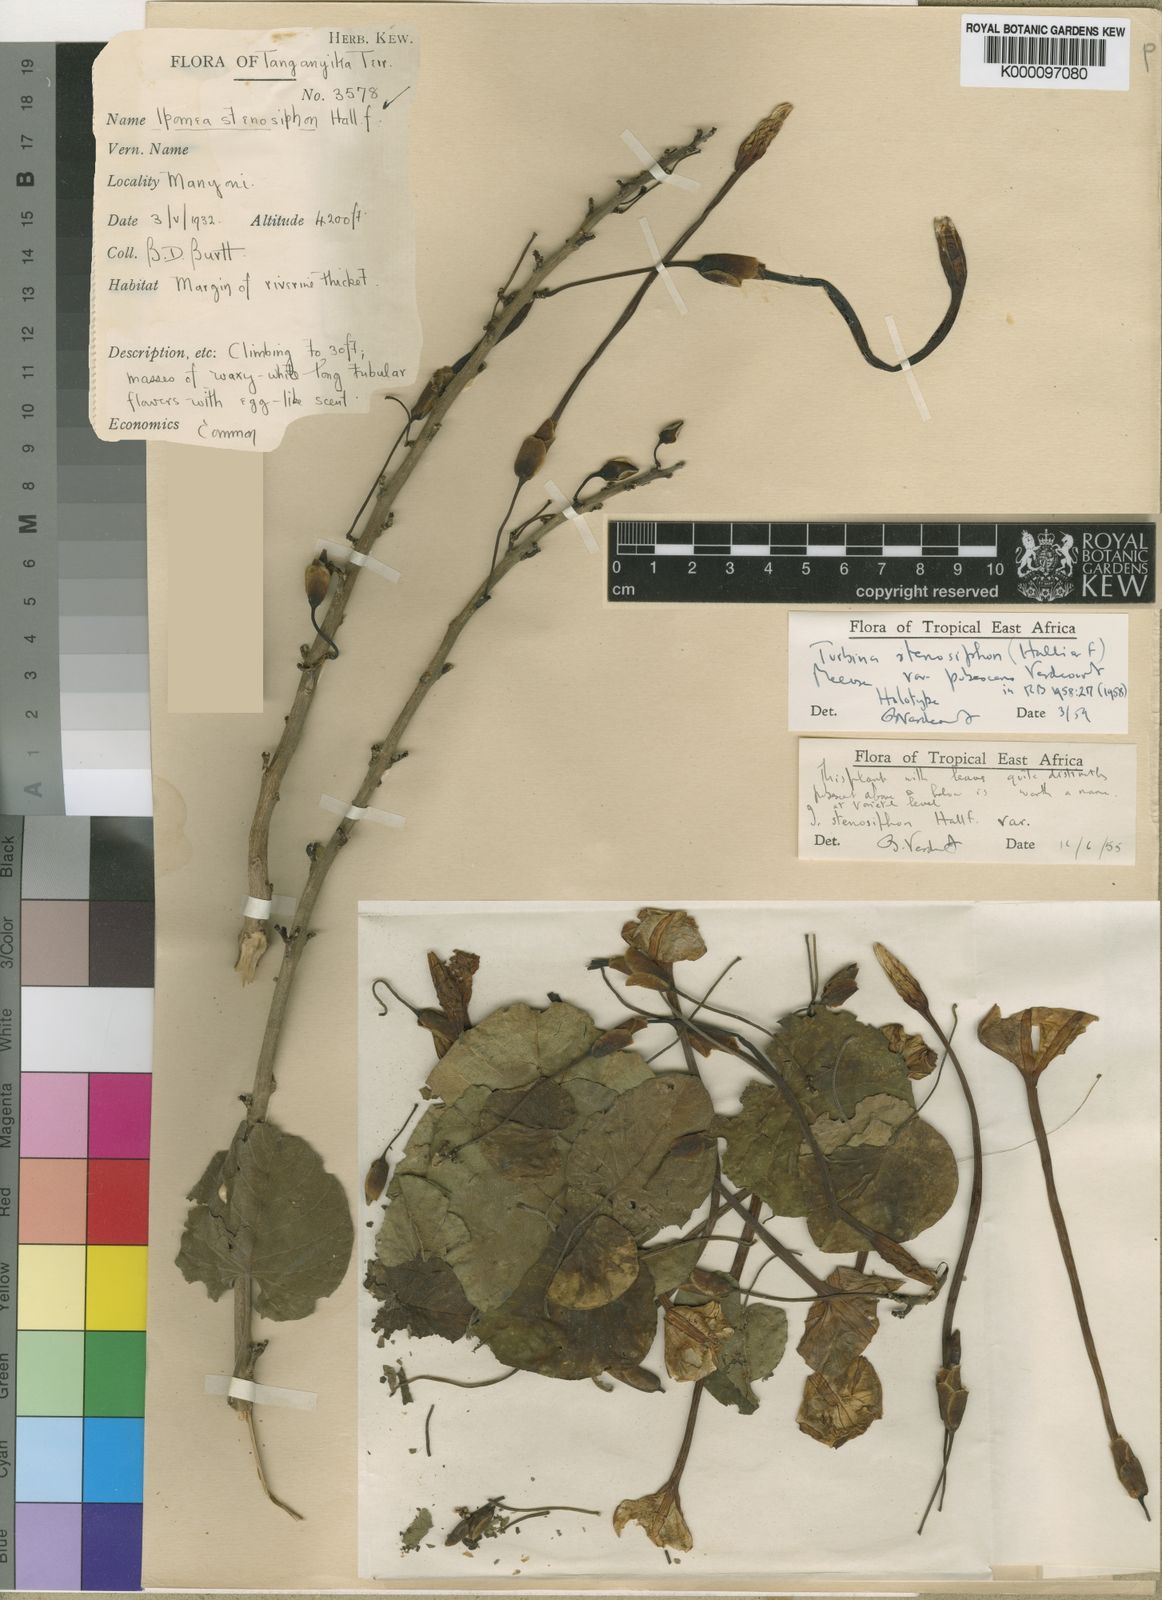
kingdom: Plantae
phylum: Tracheophyta
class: Magnoliopsida
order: Solanales
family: Convolvulaceae
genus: Ipomoea
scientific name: Ipomoea stenosiphon
